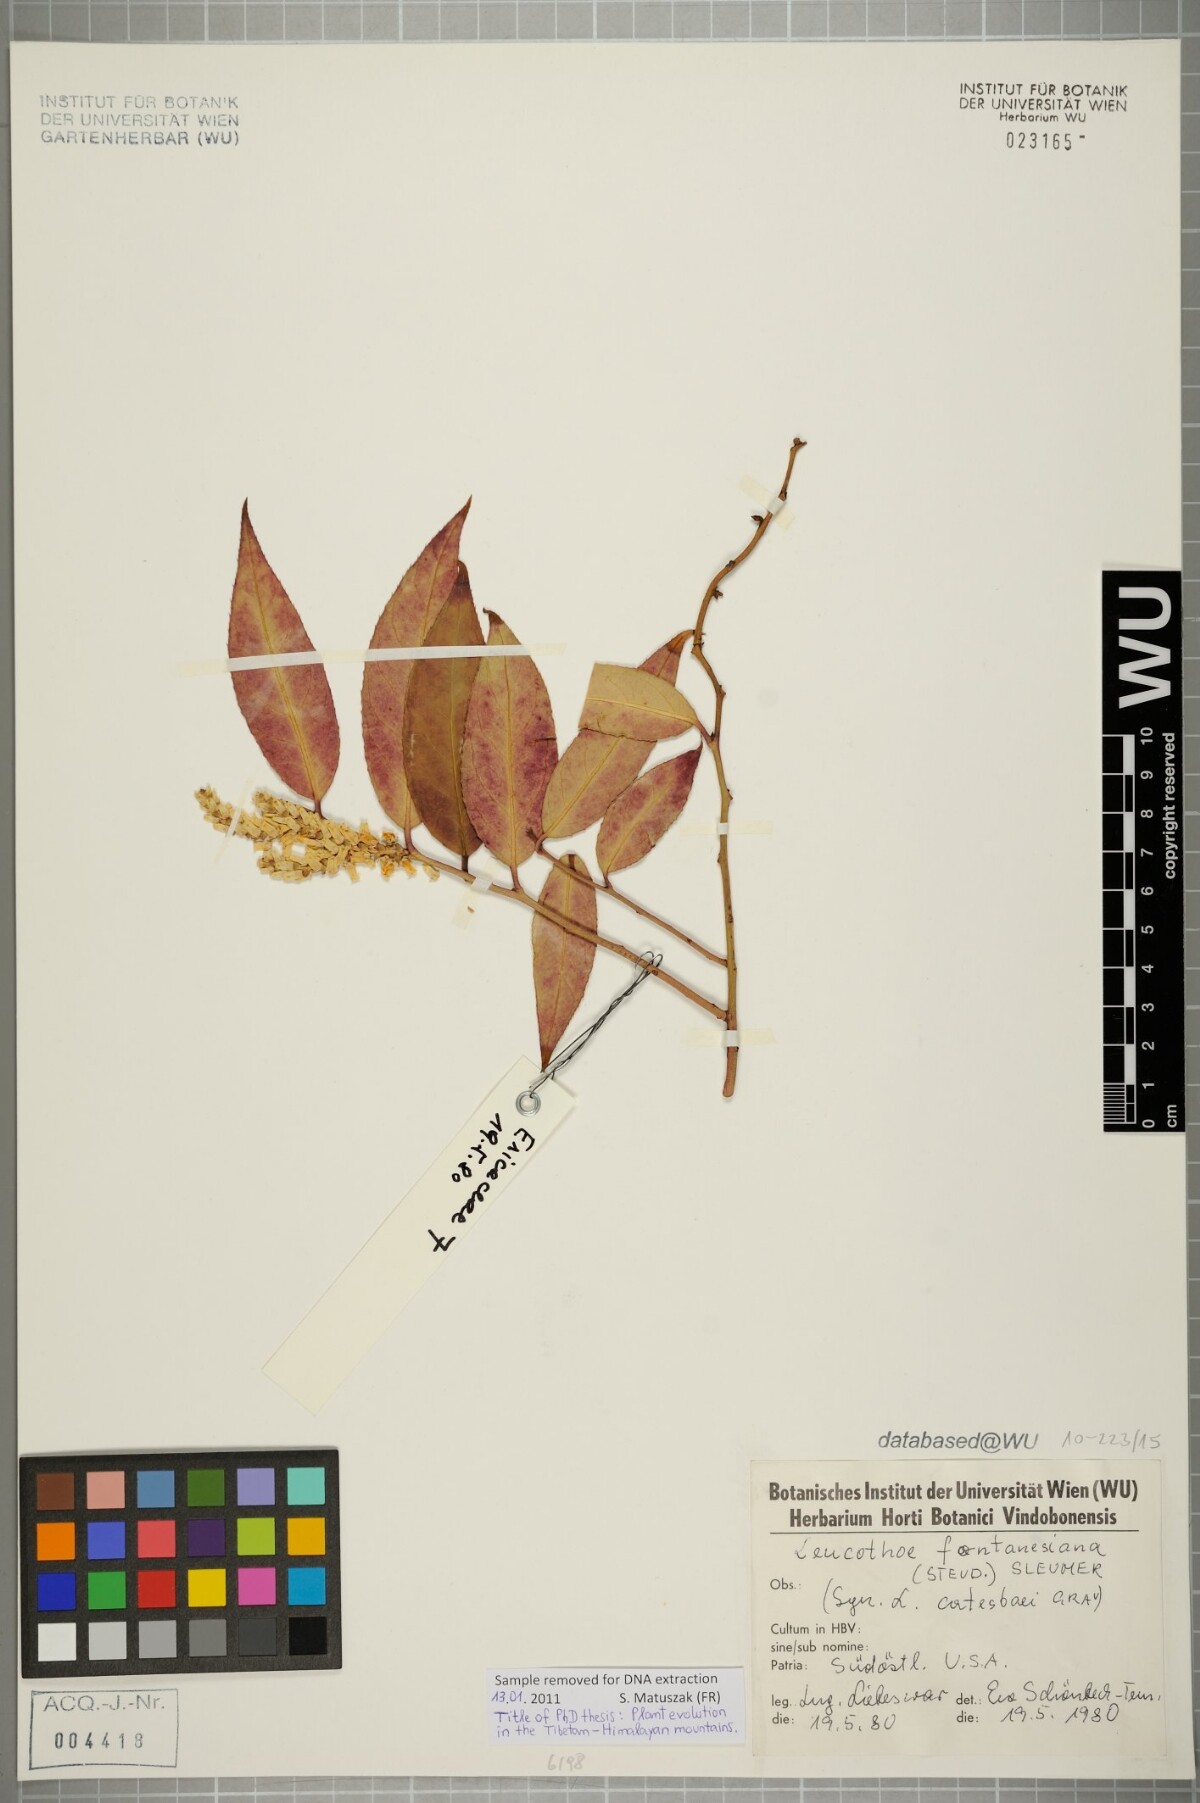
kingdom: Plantae
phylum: Tracheophyta
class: Magnoliopsida
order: Ericales
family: Ericaceae
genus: Leucothoe
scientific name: Leucothoe fontanesiana
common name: Fetterbush
